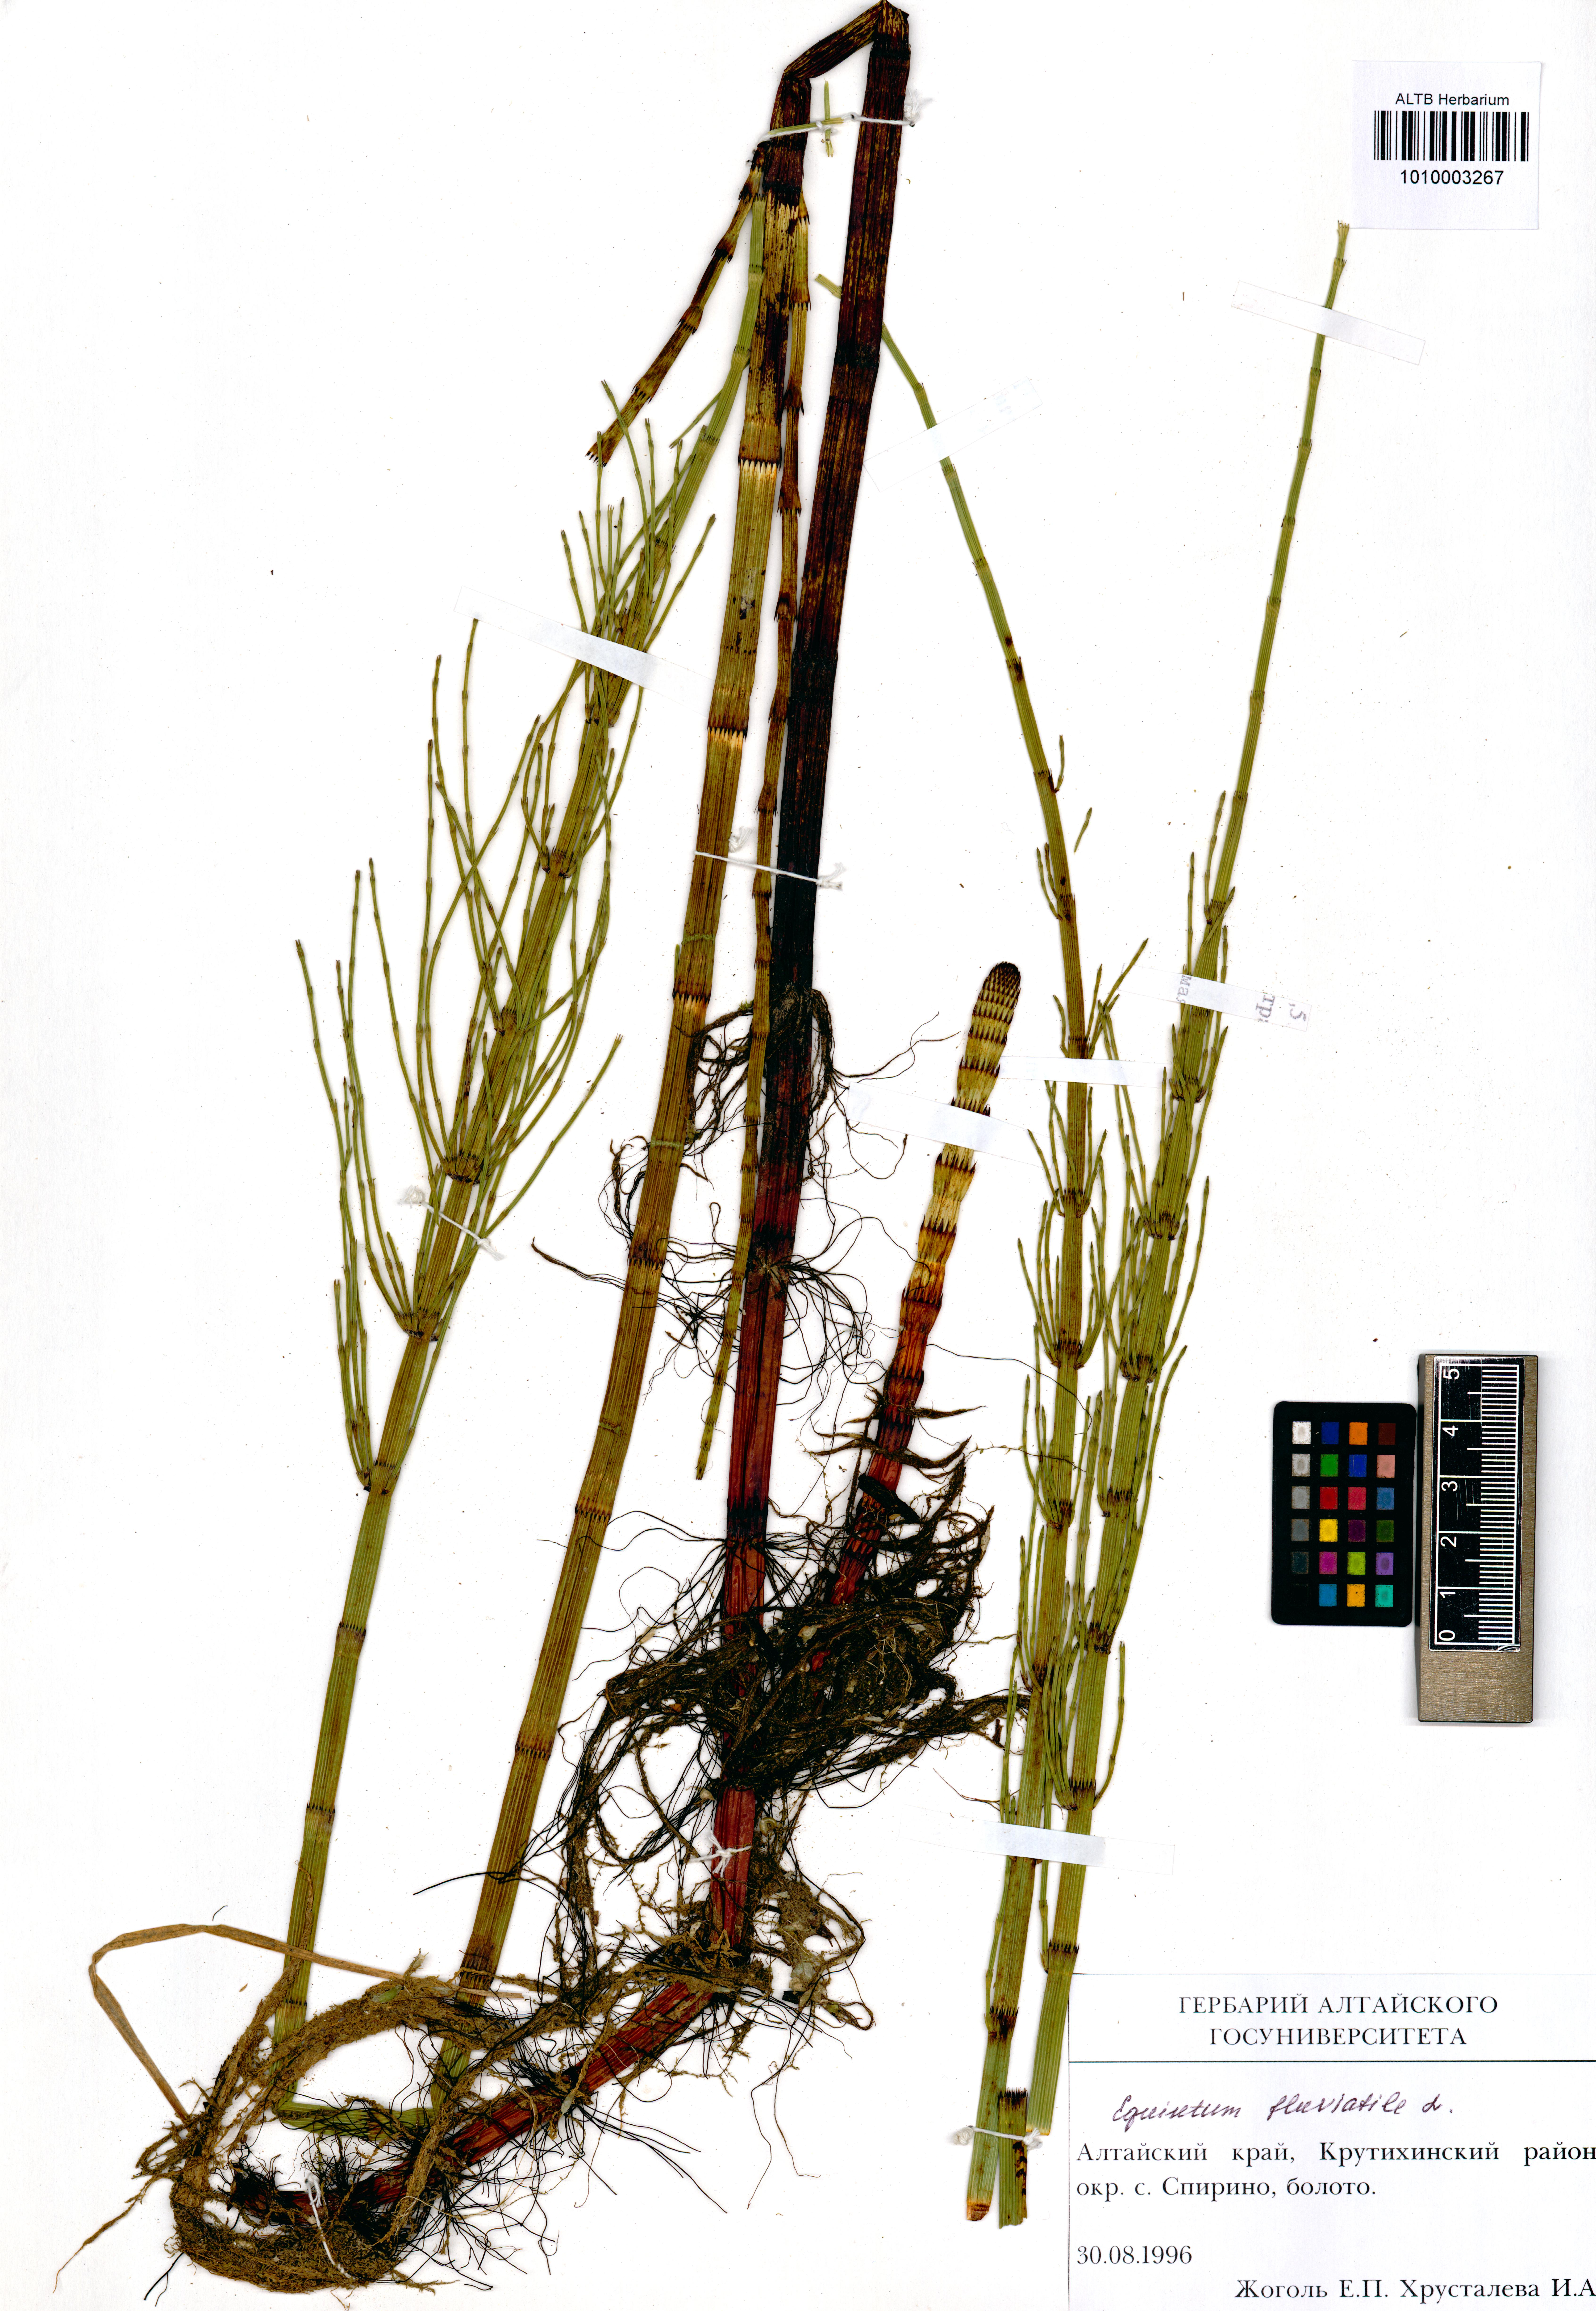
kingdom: Plantae
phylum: Tracheophyta
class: Polypodiopsida
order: Equisetales
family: Equisetaceae
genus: Equisetum
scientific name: Equisetum fluviatile
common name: Water horsetail
